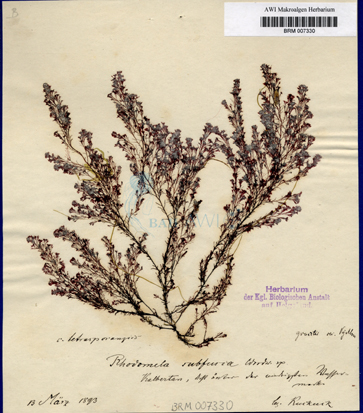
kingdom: Plantae
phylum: Rhodophyta
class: Florideophyceae
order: Ceramiales
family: Rhodomelaceae
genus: Lophura
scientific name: Lophura
